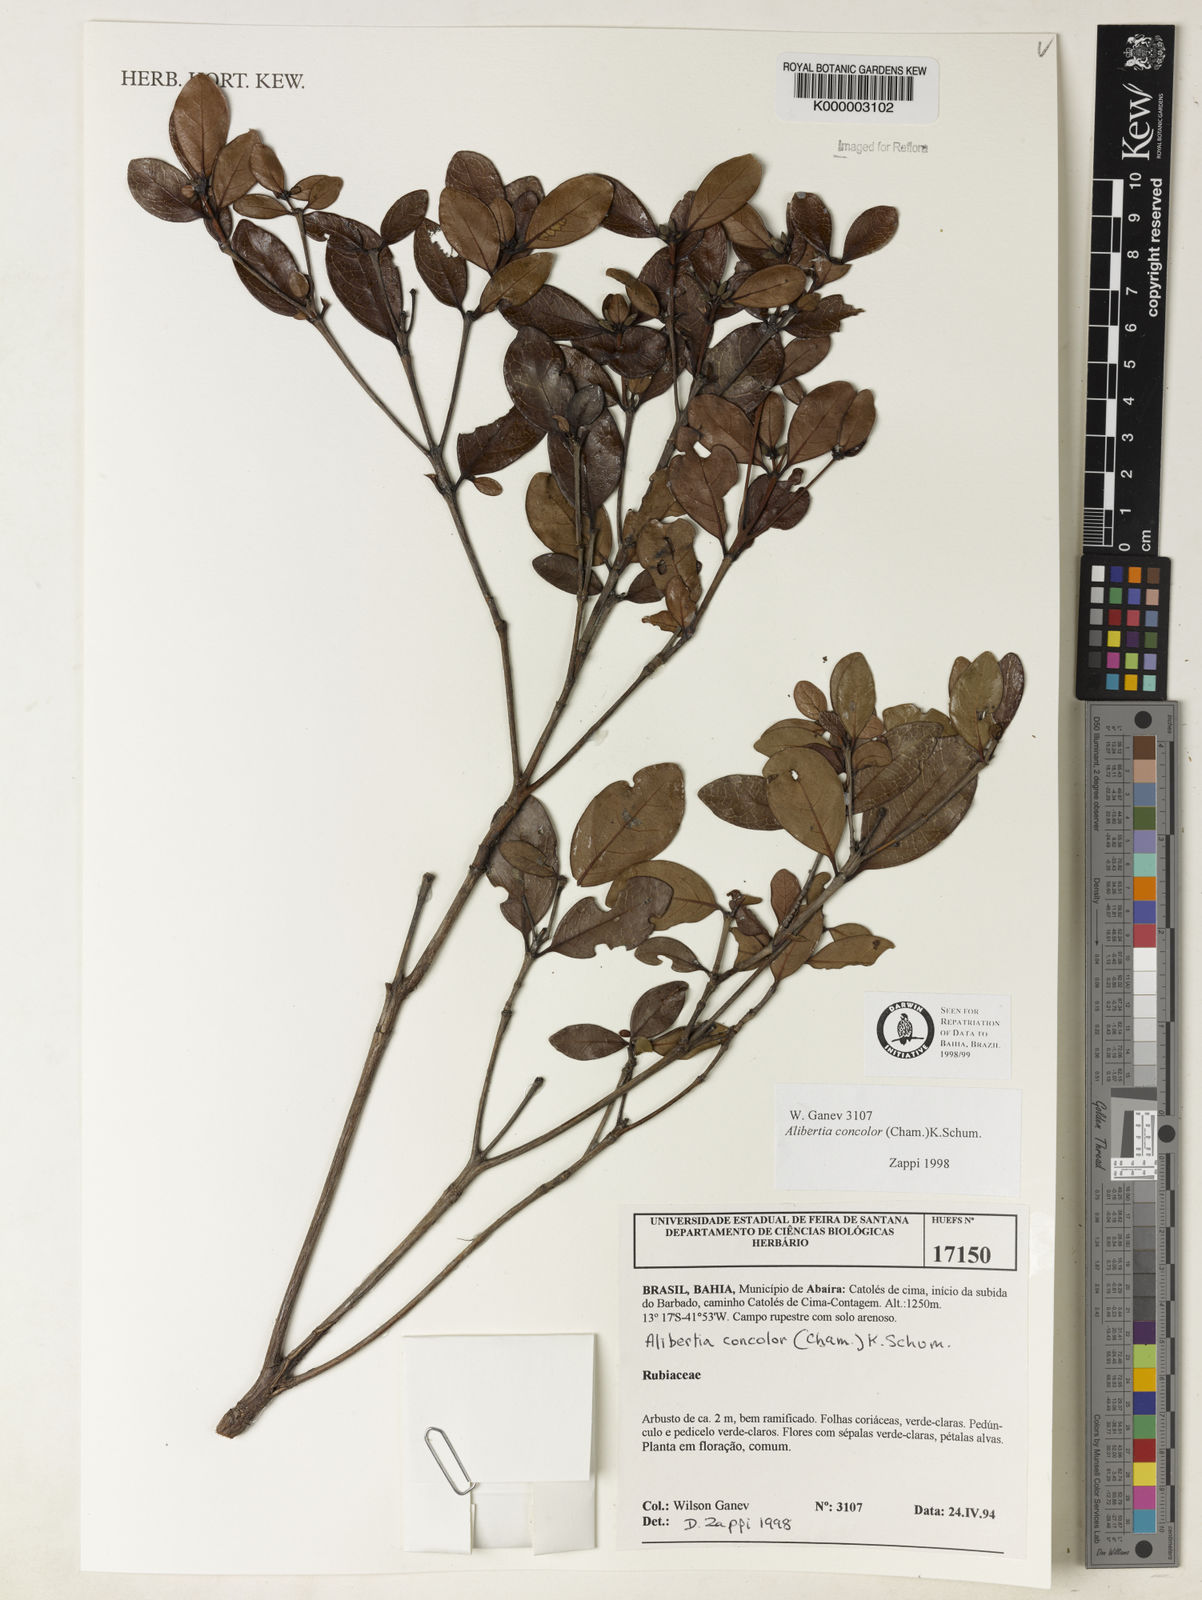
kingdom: Plantae
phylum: Tracheophyta
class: Magnoliopsida
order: Gentianales
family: Rubiaceae
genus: Cordiera
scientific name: Cordiera concolor
